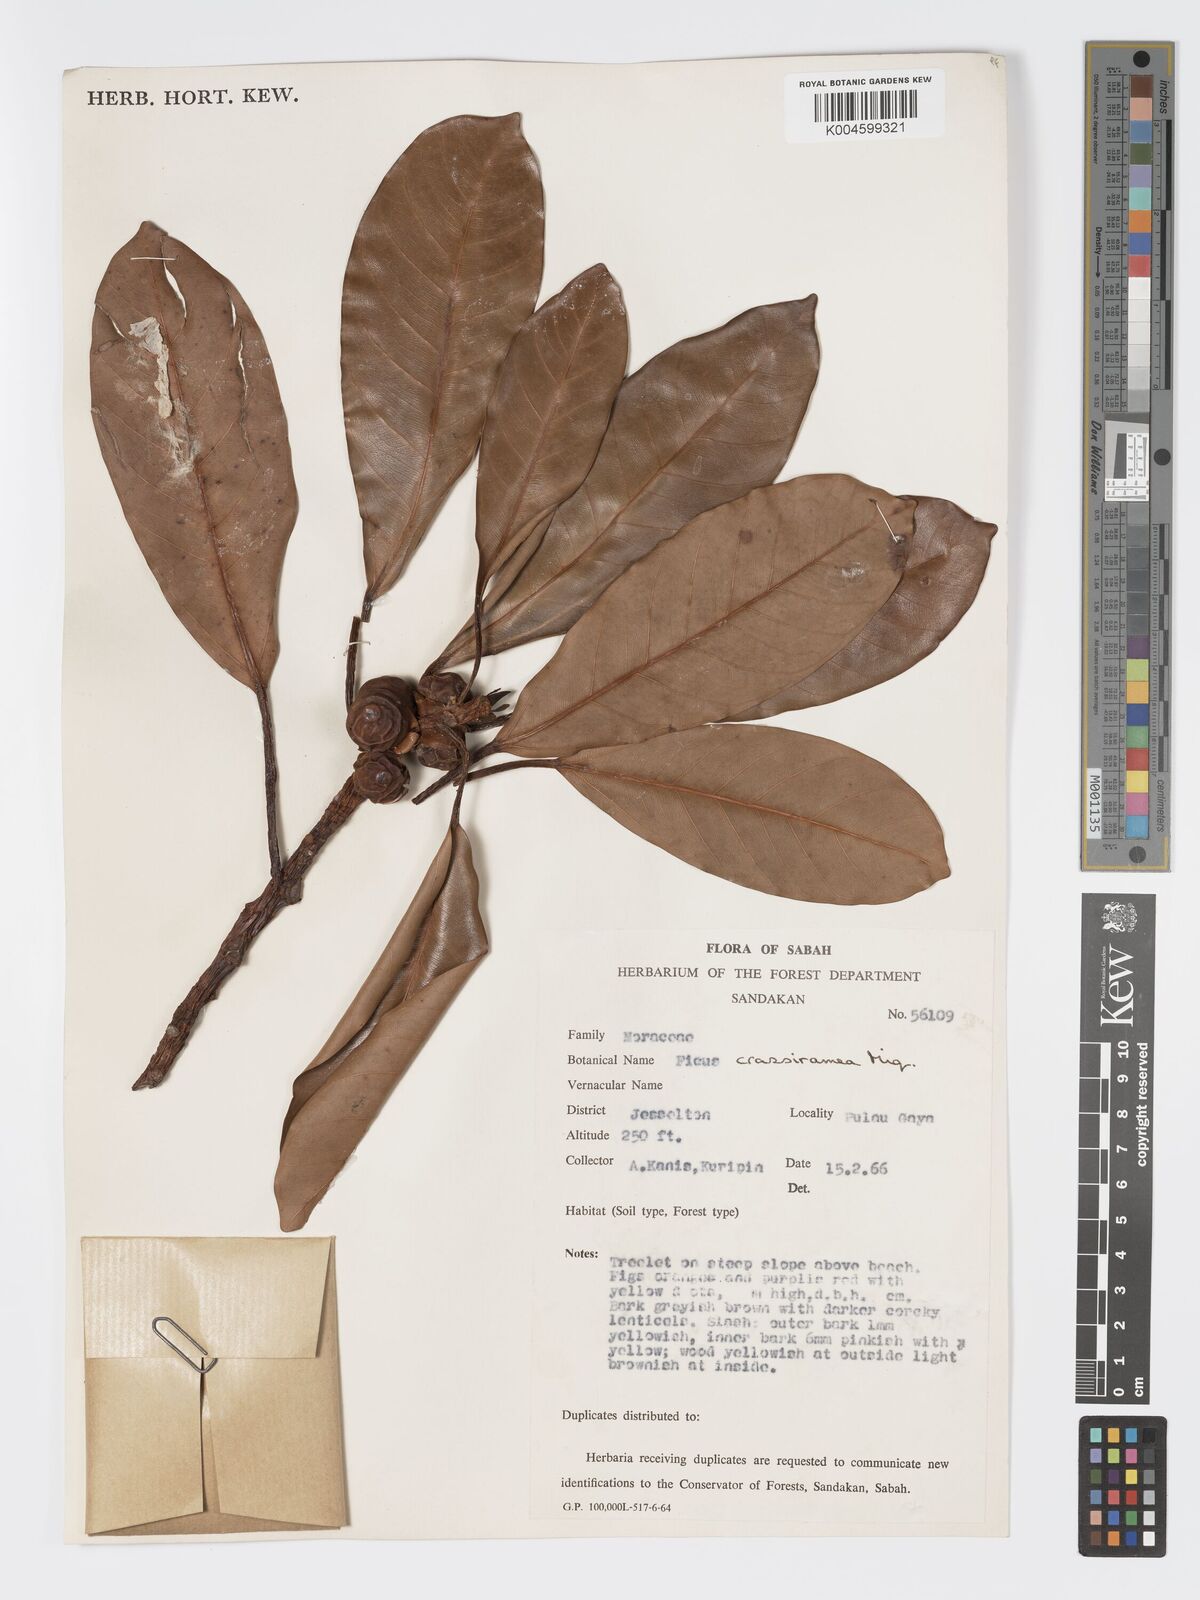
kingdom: Plantae
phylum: Tracheophyta
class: Magnoliopsida
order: Rosales
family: Moraceae
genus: Ficus
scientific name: Ficus crassiramea
